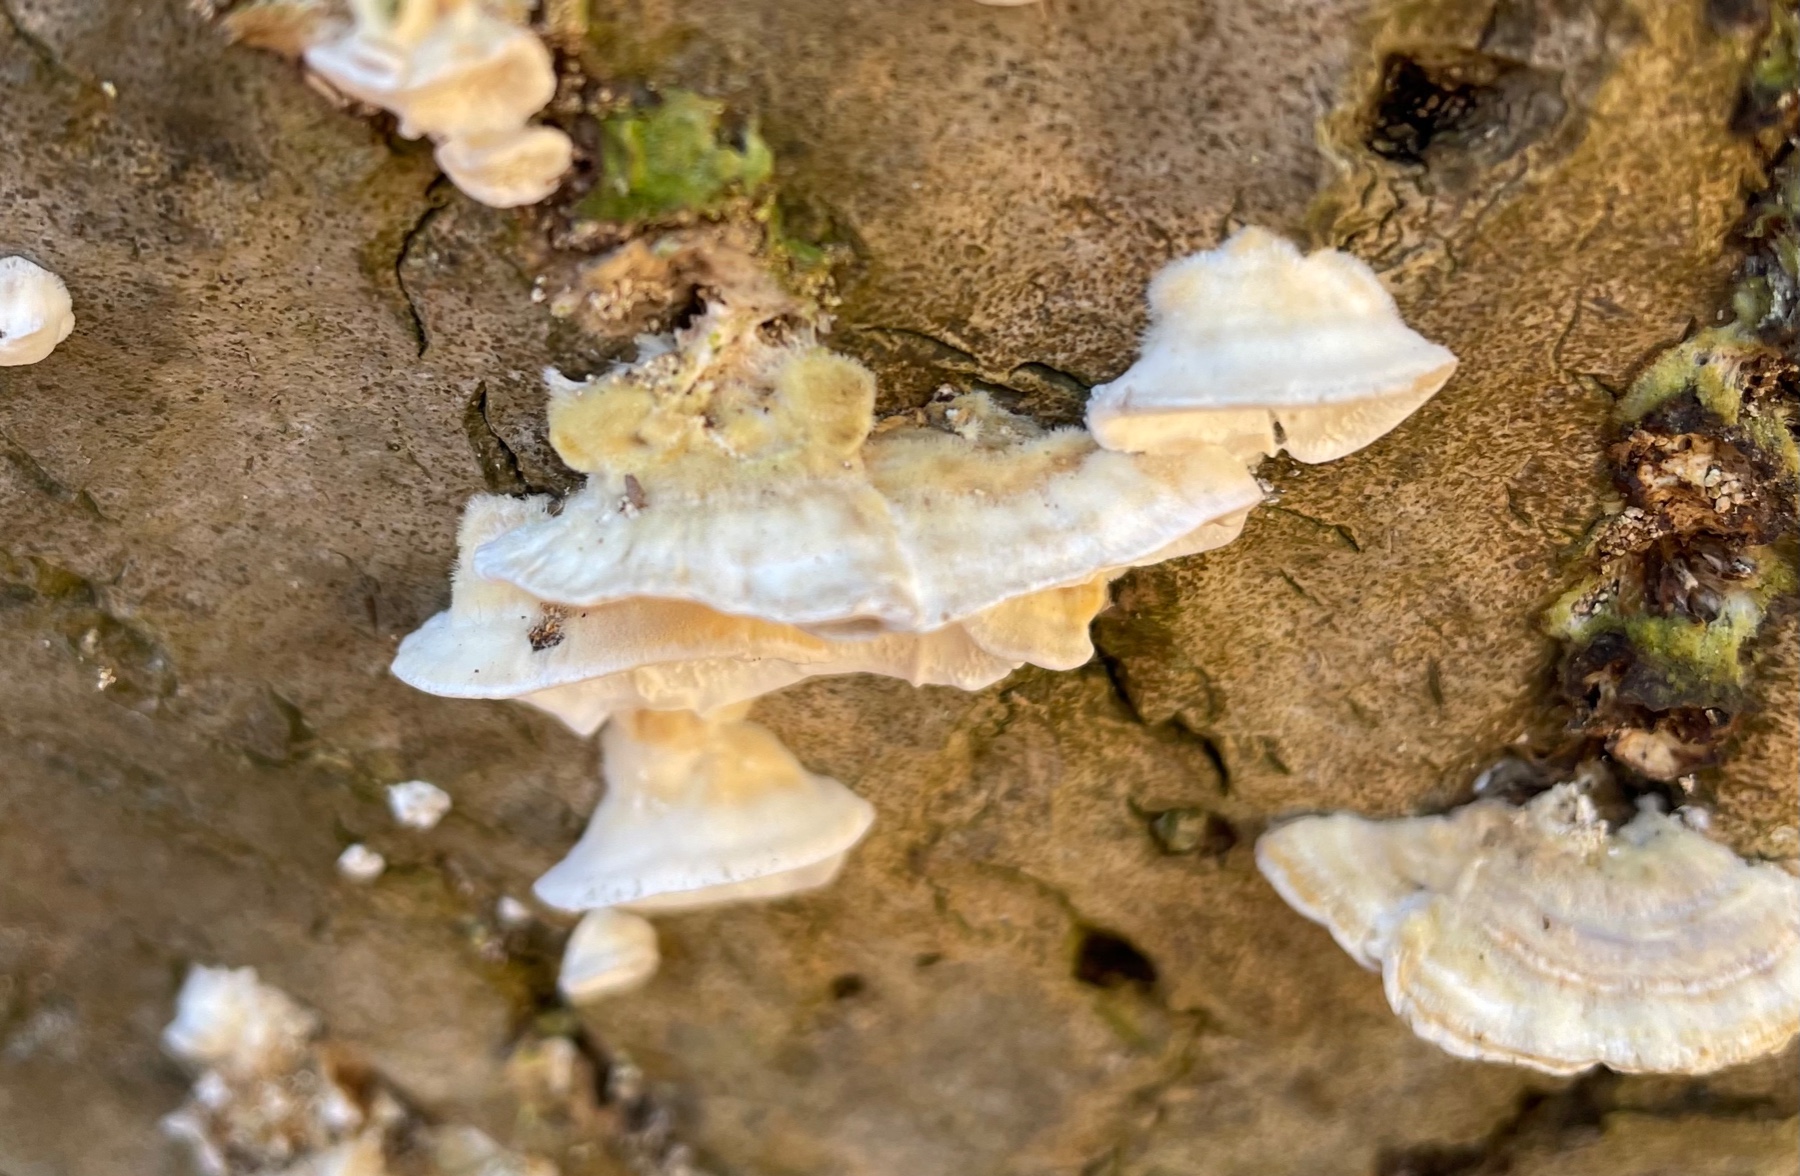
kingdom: Fungi
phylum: Basidiomycota
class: Agaricomycetes
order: Polyporales
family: Polyporaceae
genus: Trametes
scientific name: Trametes
